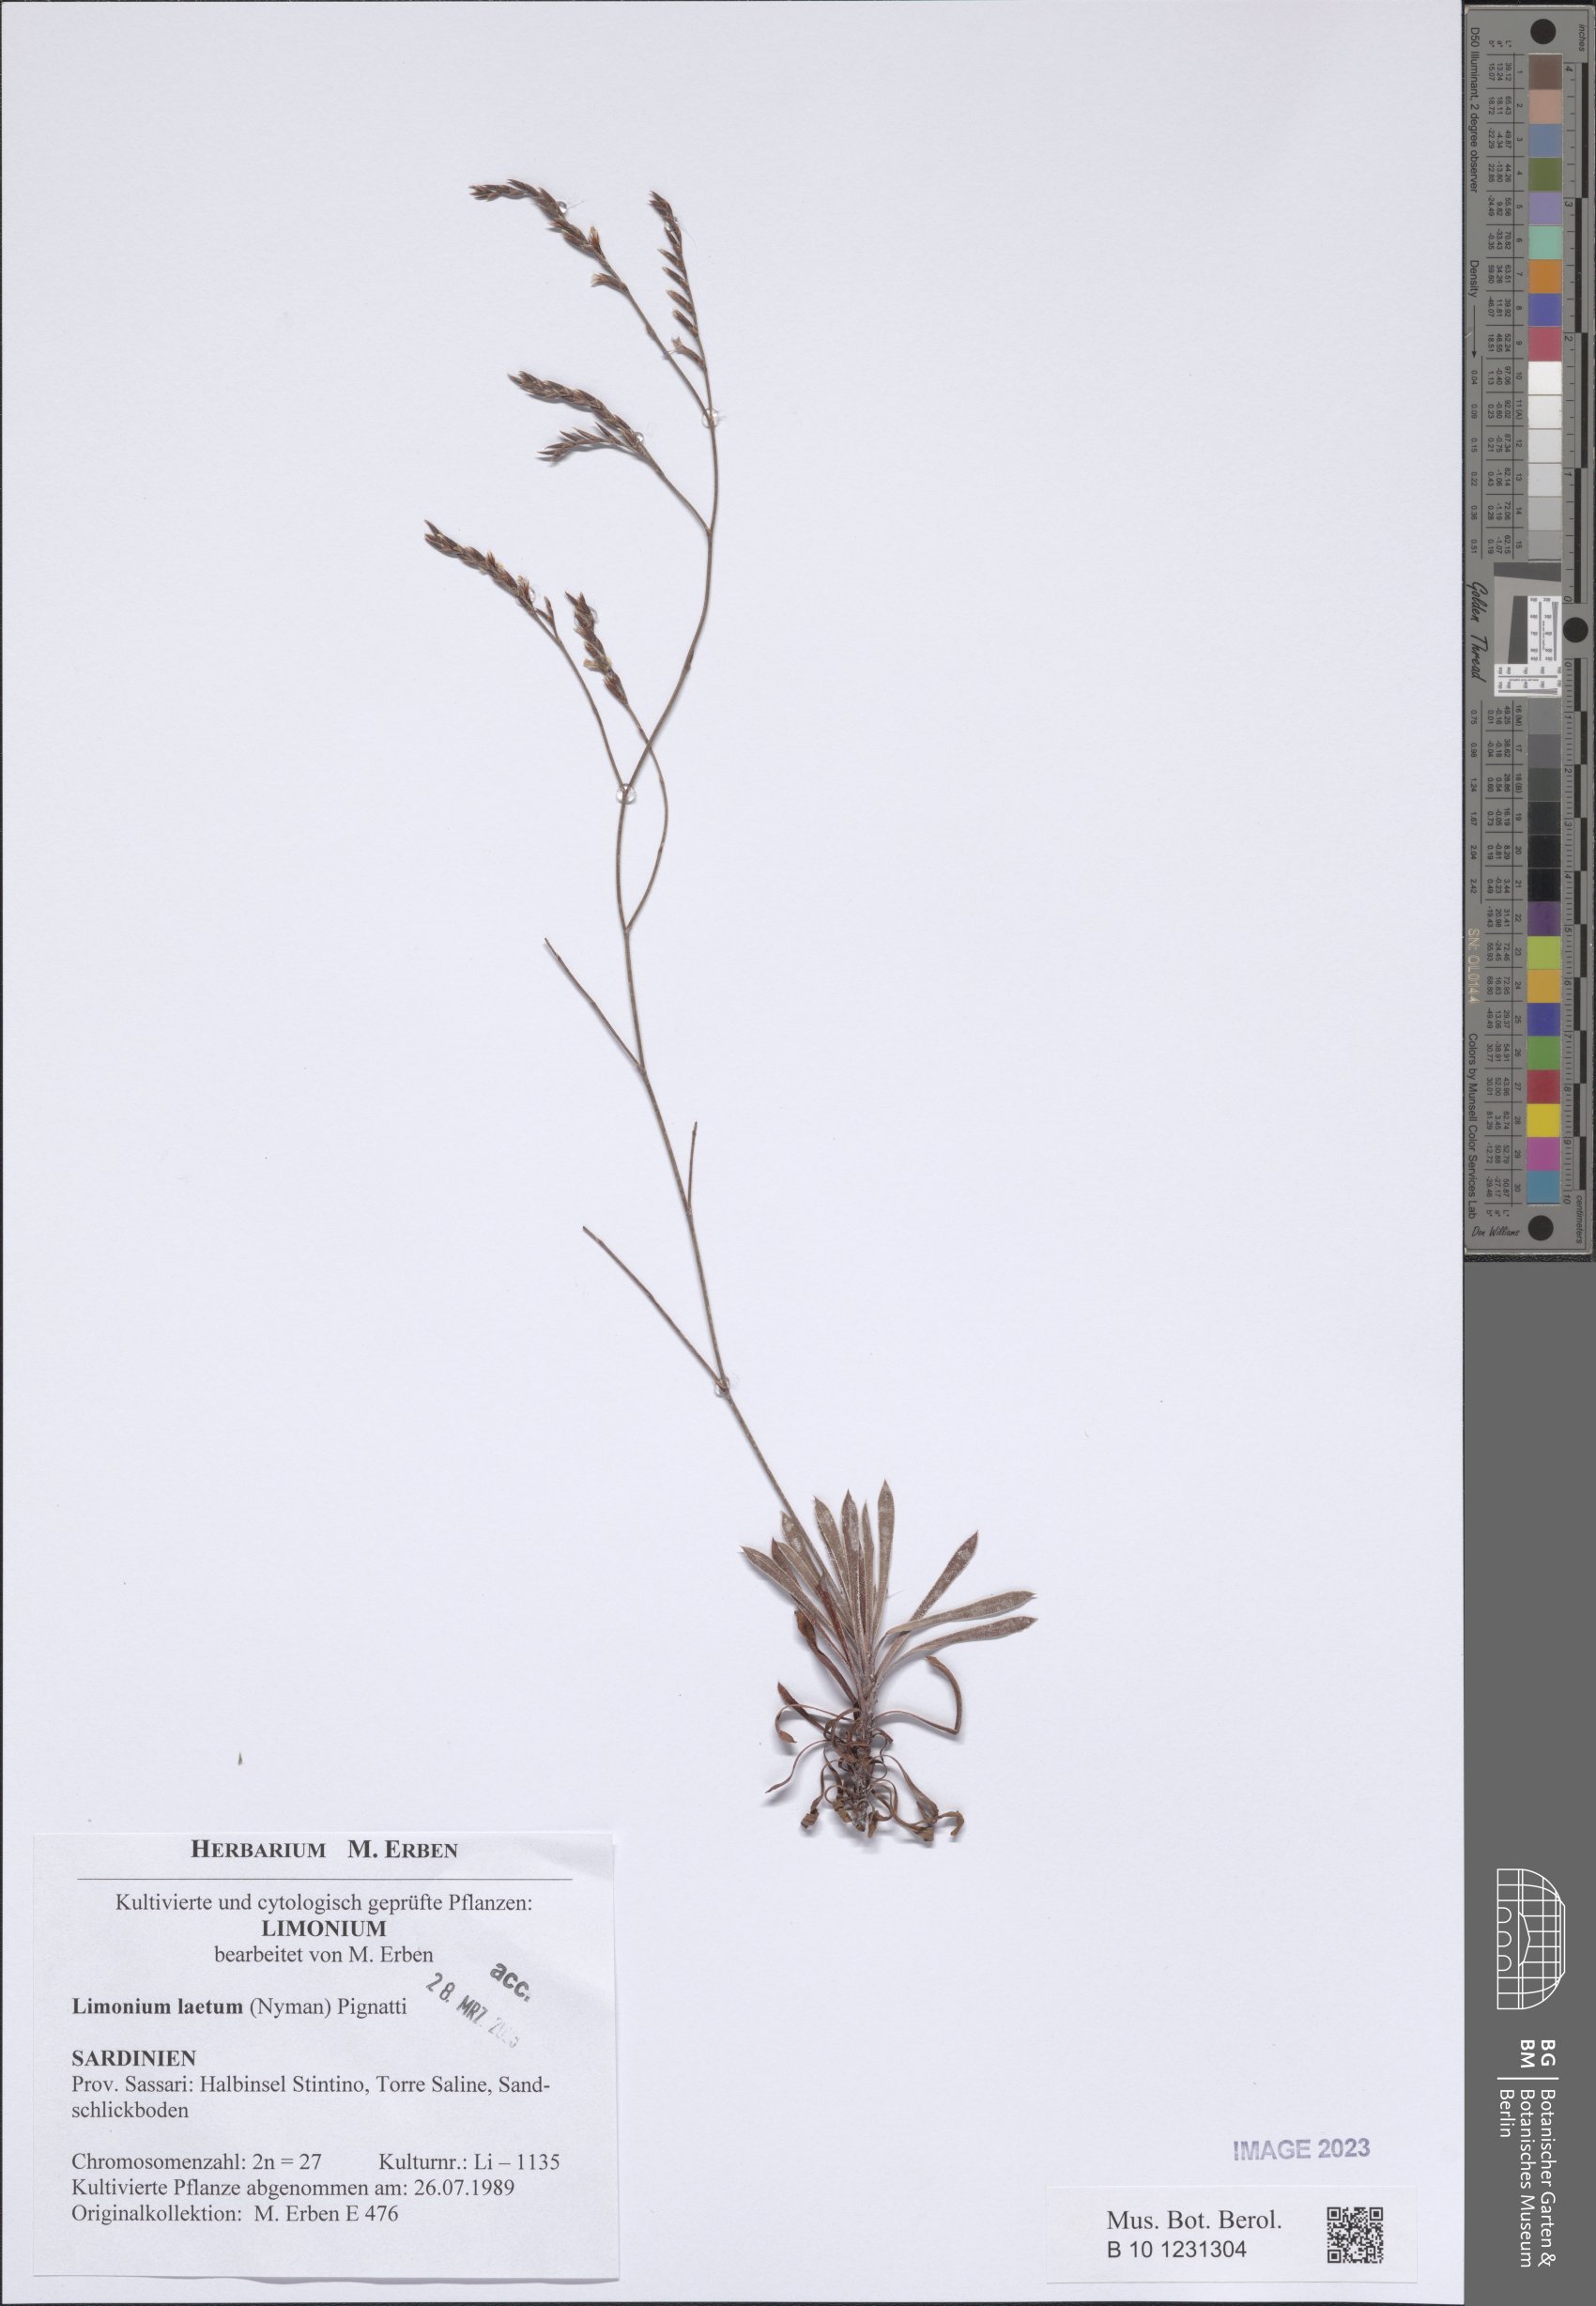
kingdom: Plantae
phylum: Tracheophyta
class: Magnoliopsida
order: Caryophyllales
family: Plumbaginaceae
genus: Limonium
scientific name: Limonium laetum
